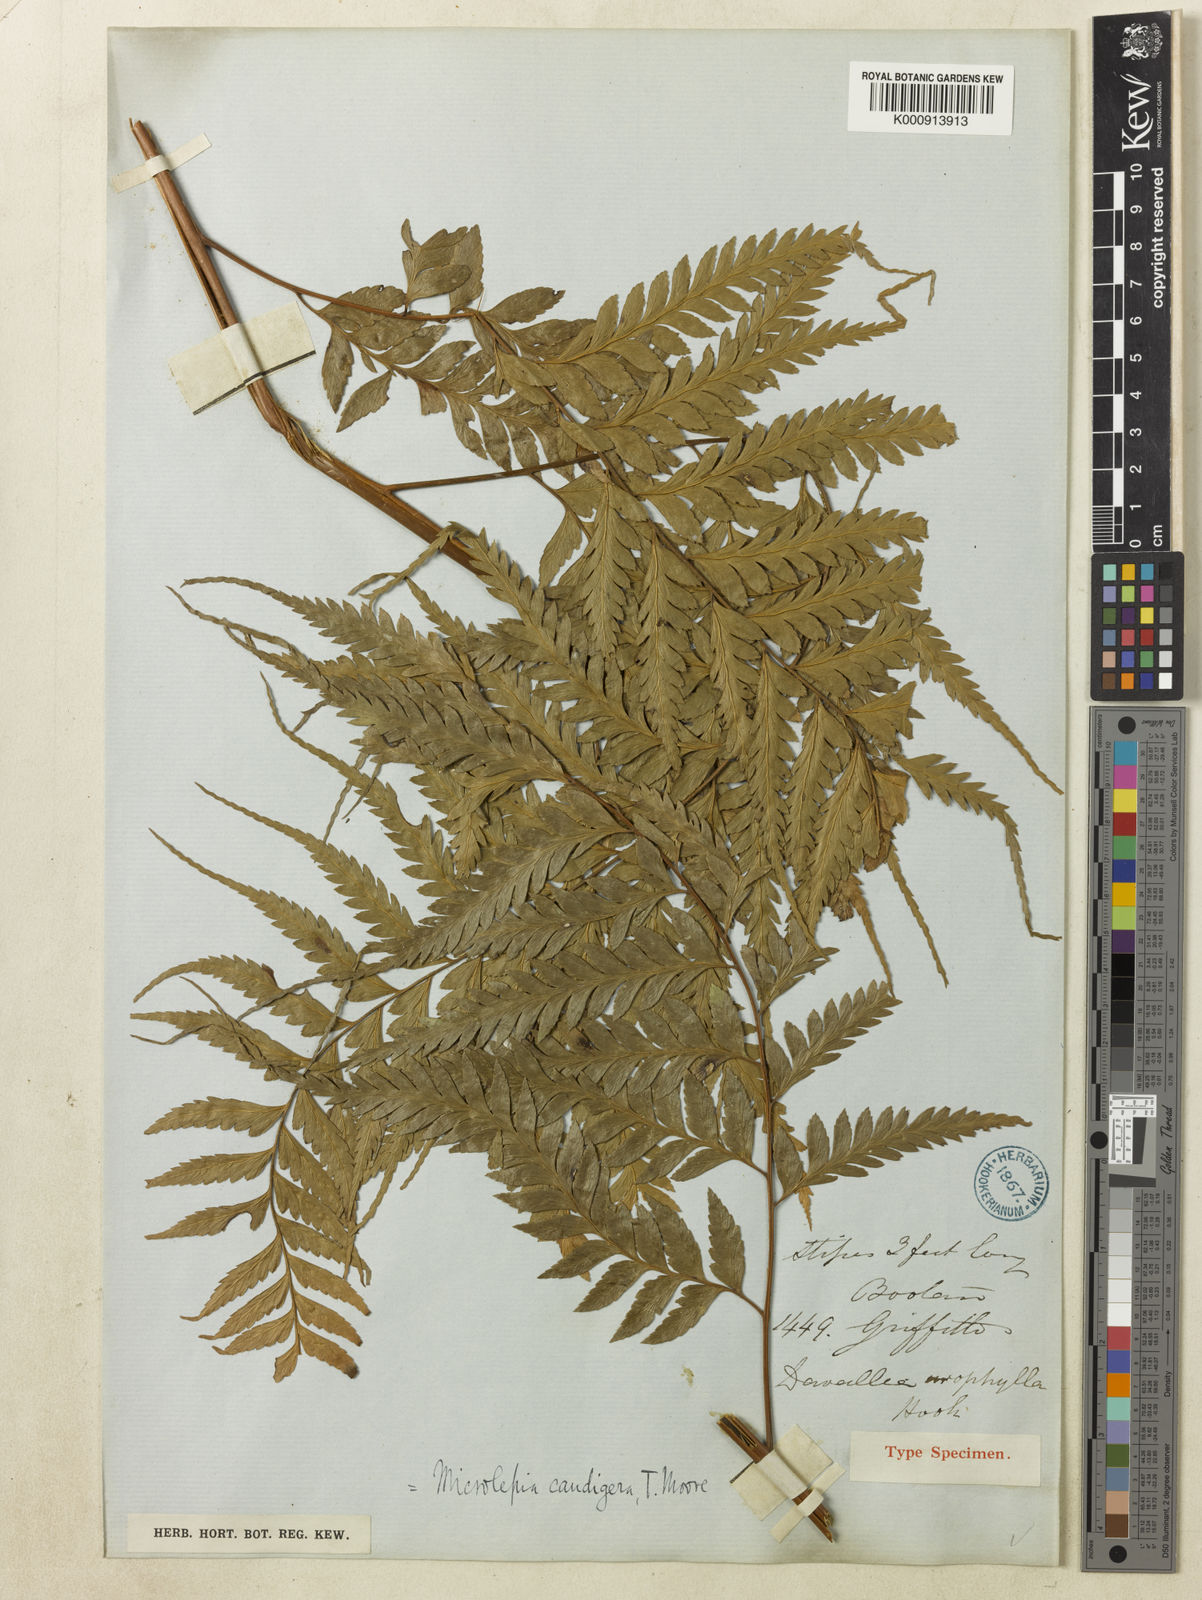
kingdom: Plantae
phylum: Tracheophyta
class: Polypodiopsida
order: Polypodiales
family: Dennstaedtiaceae
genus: Microlepia
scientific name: Microlepia caudigera
